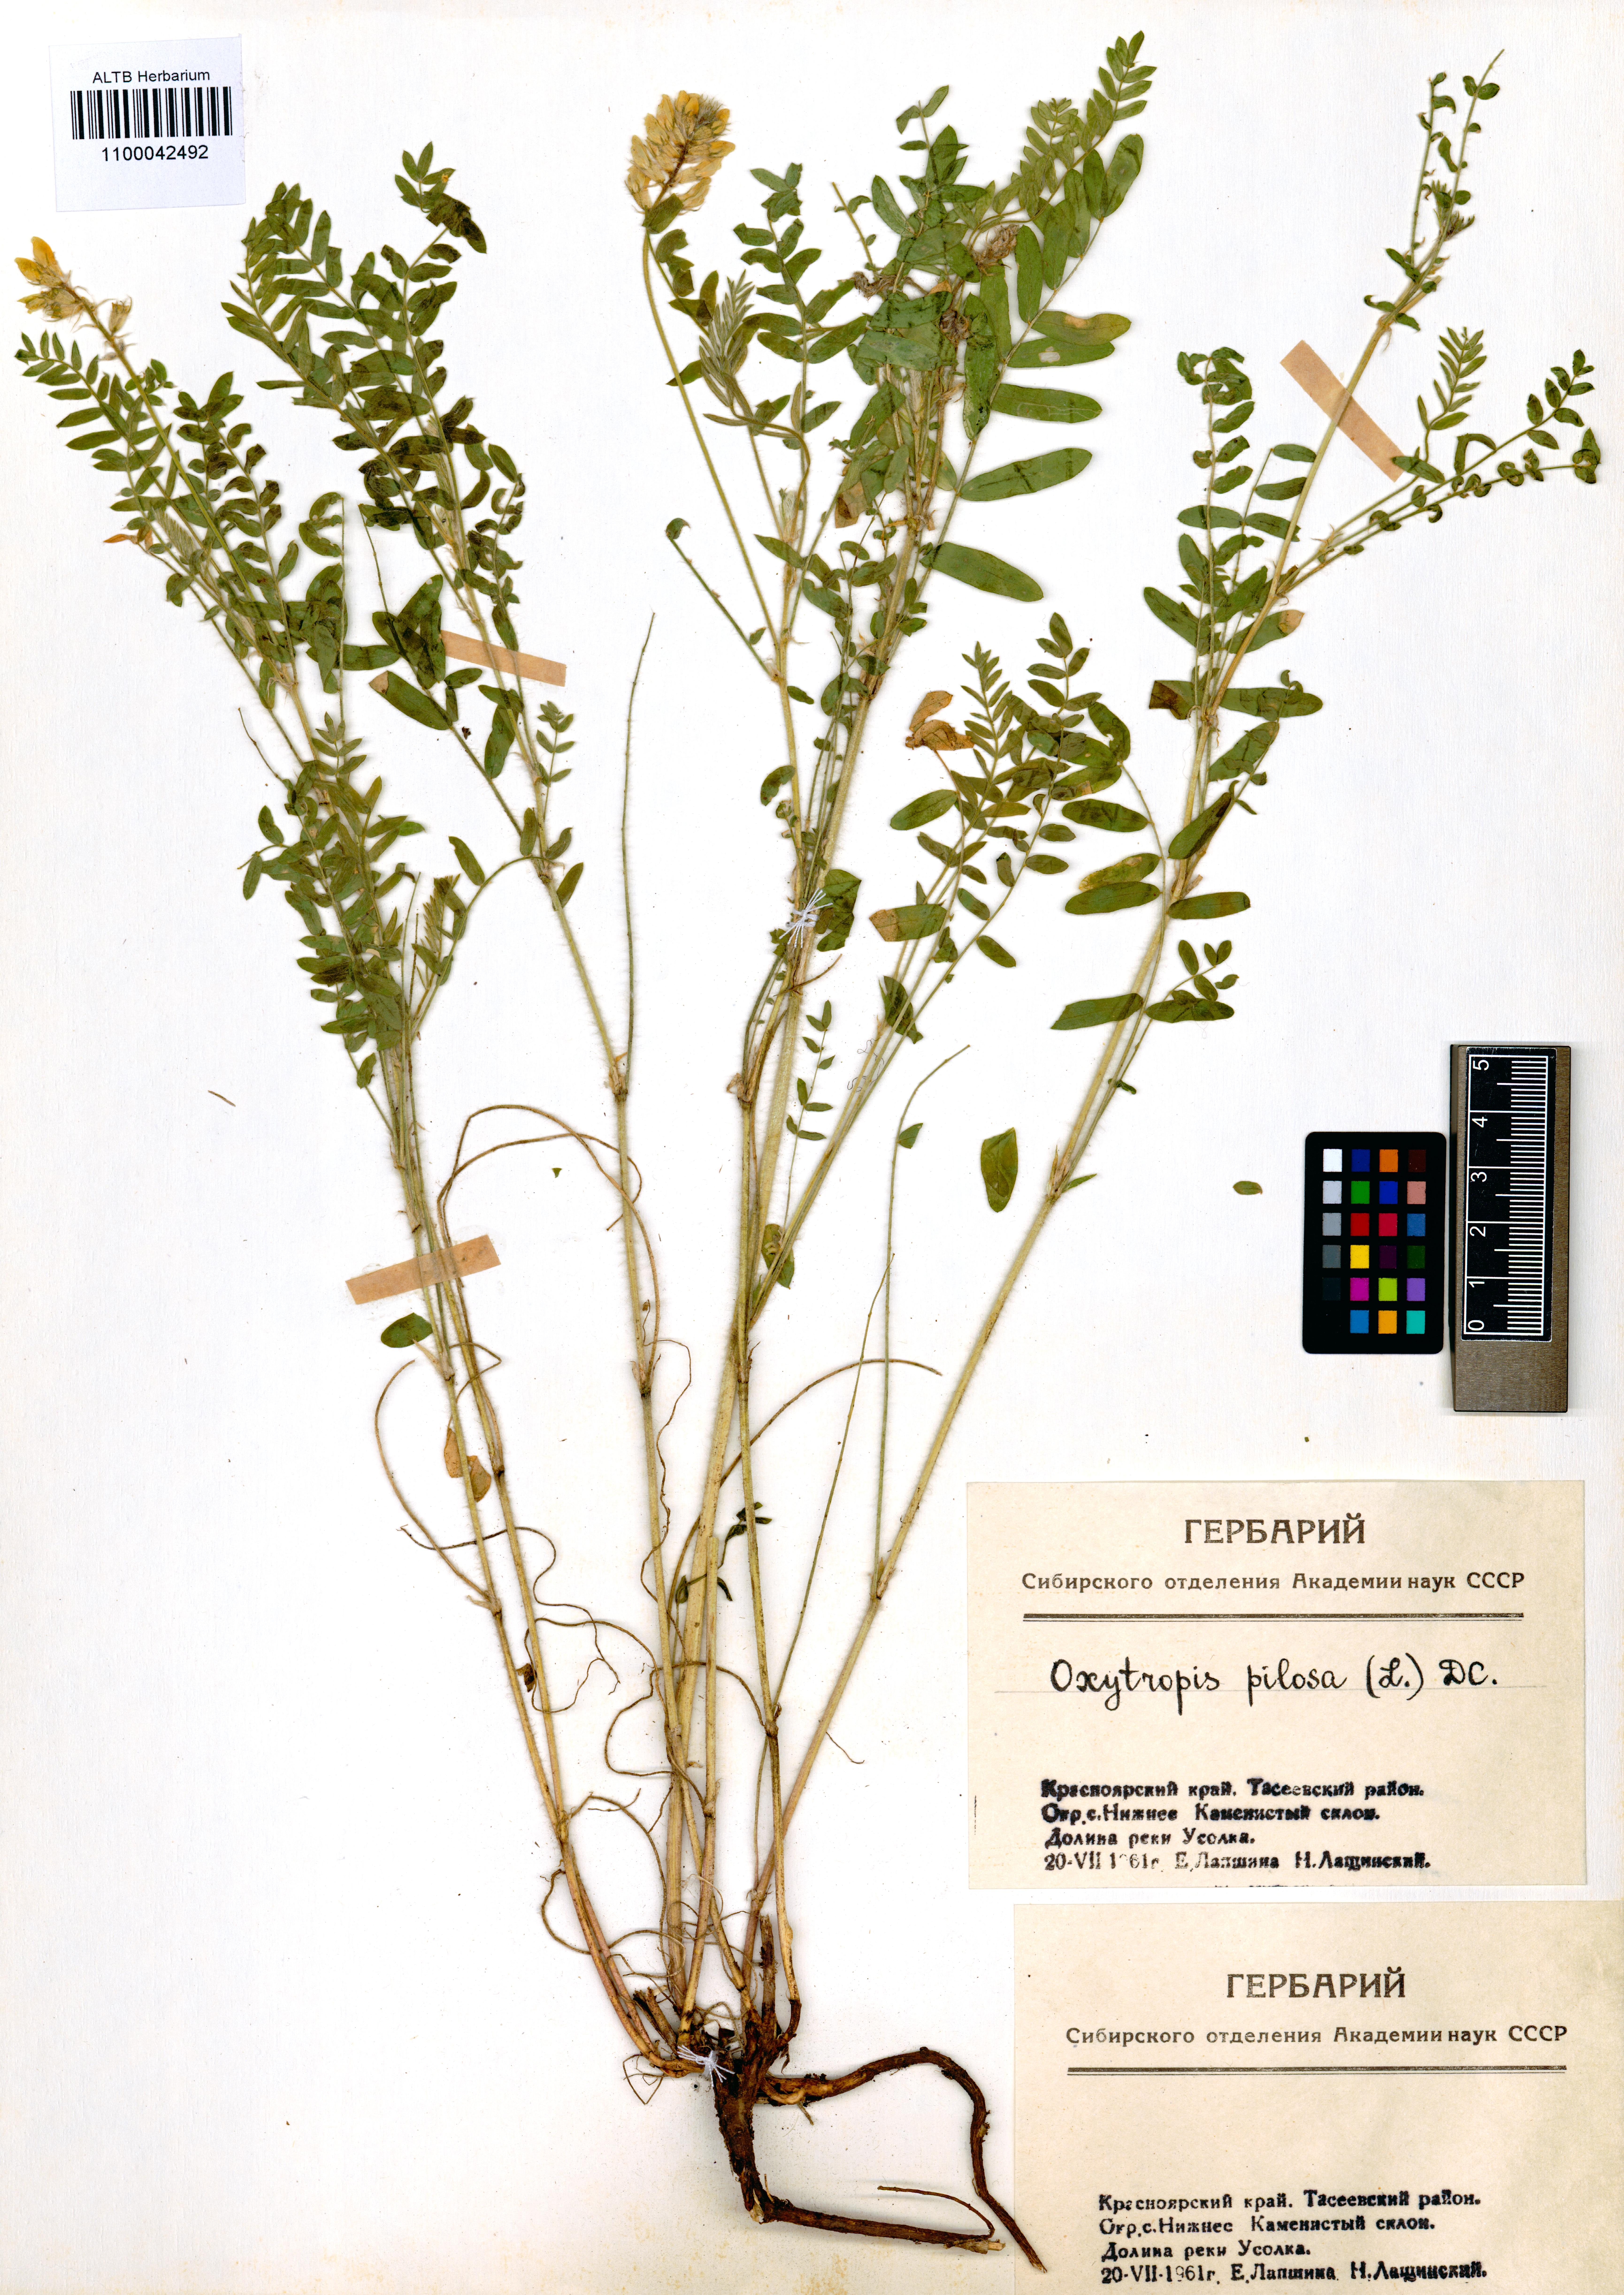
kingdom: Plantae
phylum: Tracheophyta
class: Magnoliopsida
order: Fabales
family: Fabaceae
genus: Oxytropis
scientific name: Oxytropis pilosa
